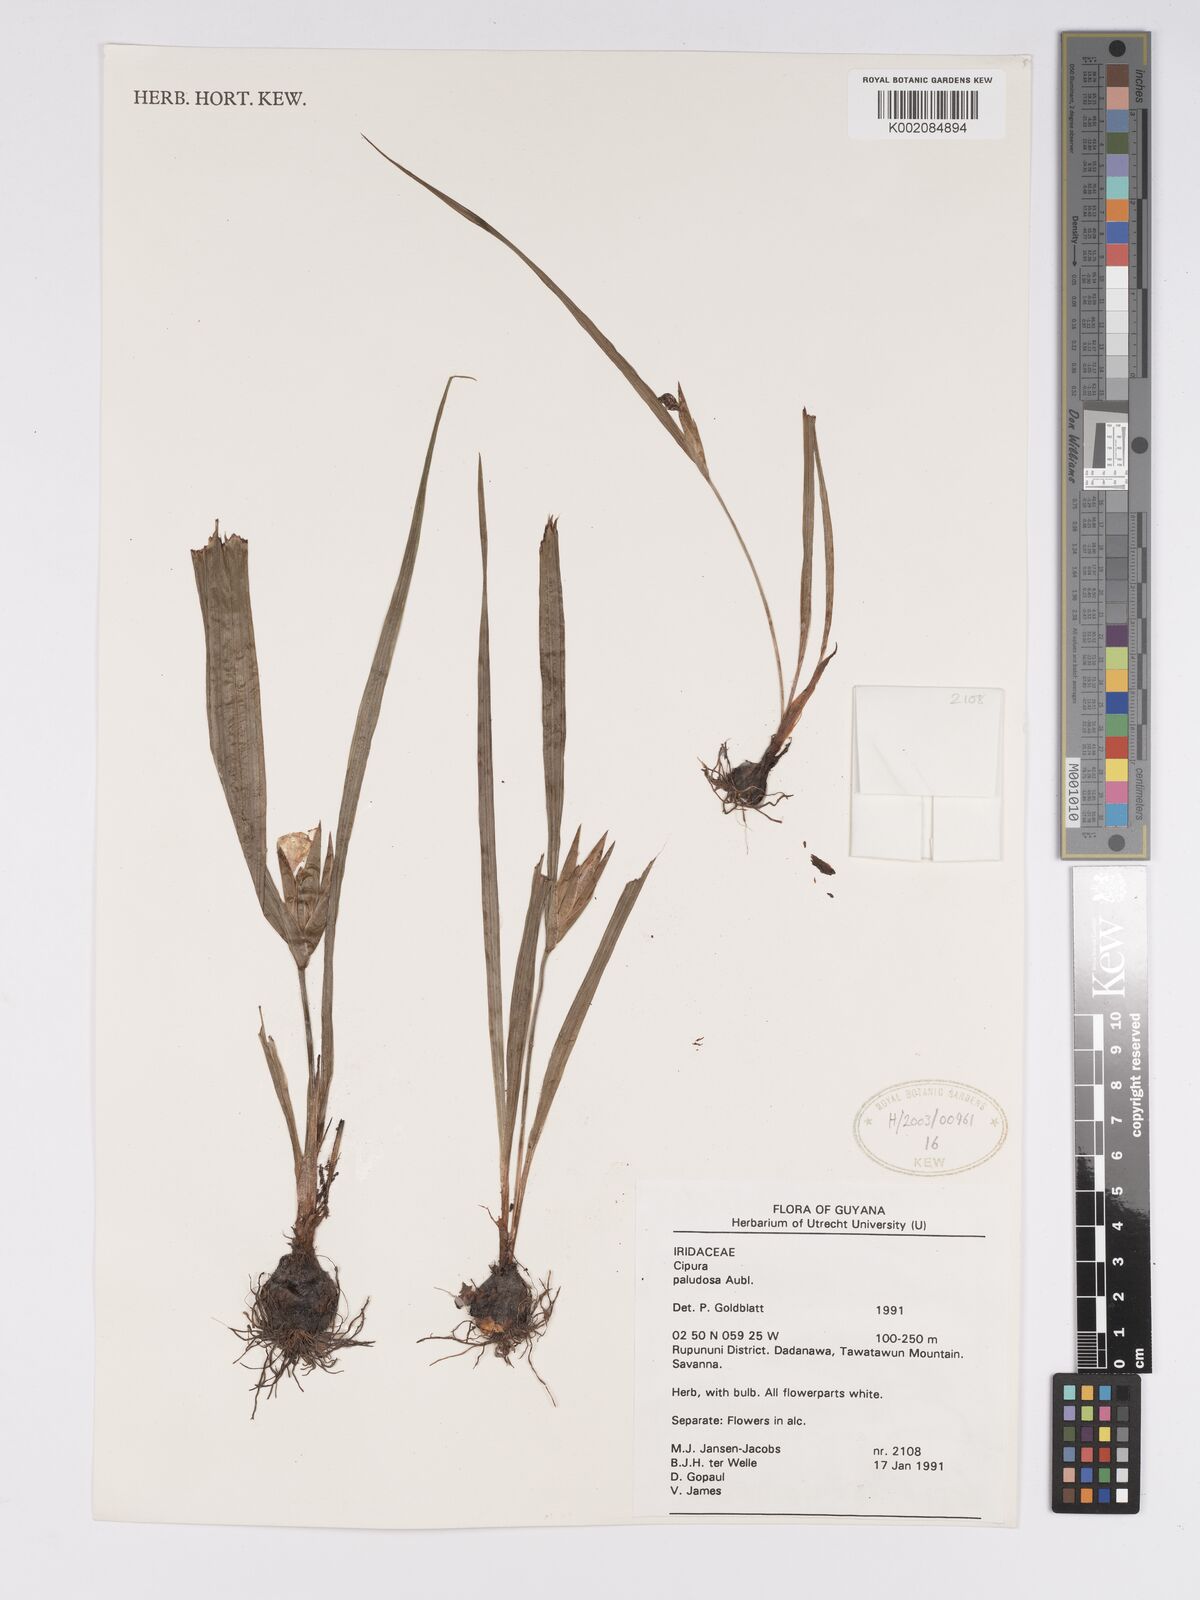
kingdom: Plantae
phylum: Tracheophyta
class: Liliopsida
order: Asparagales
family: Iridaceae
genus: Cipura
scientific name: Cipura paludosa
